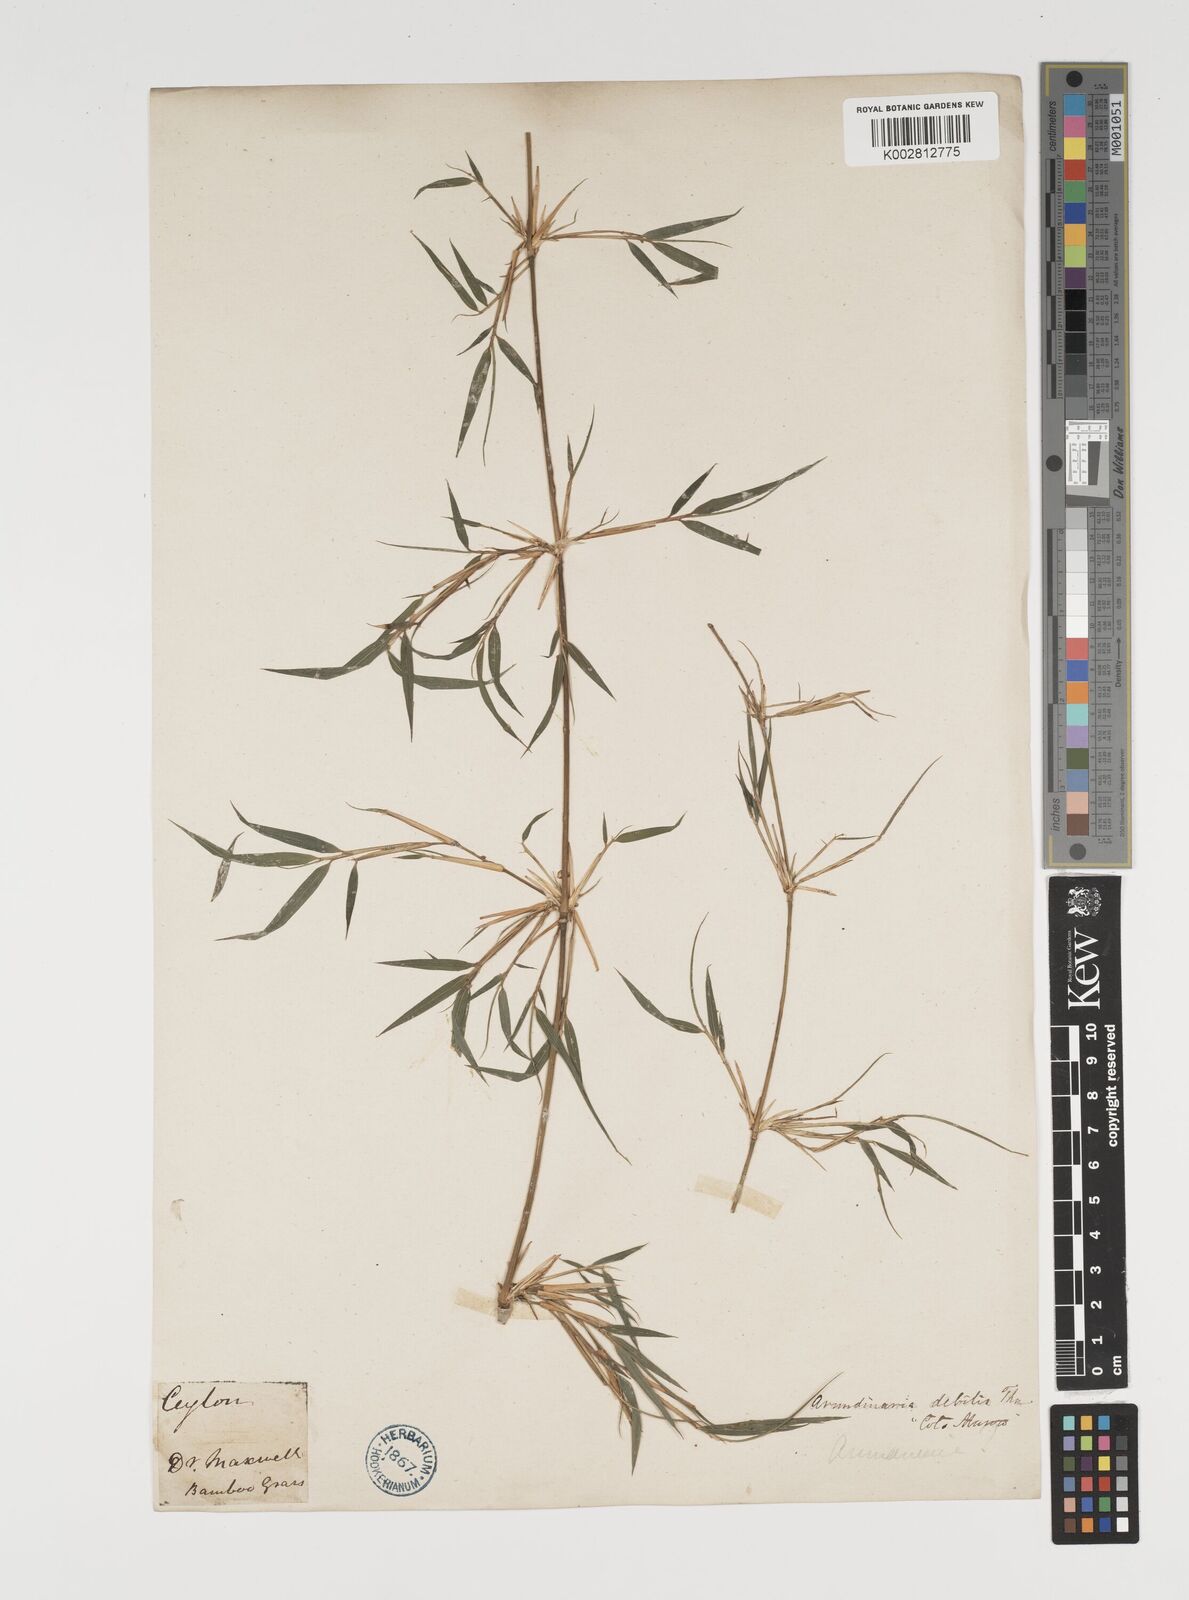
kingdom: Plantae
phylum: Tracheophyta
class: Liliopsida
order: Poales
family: Poaceae
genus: Kuruna
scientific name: Kuruna debilis
